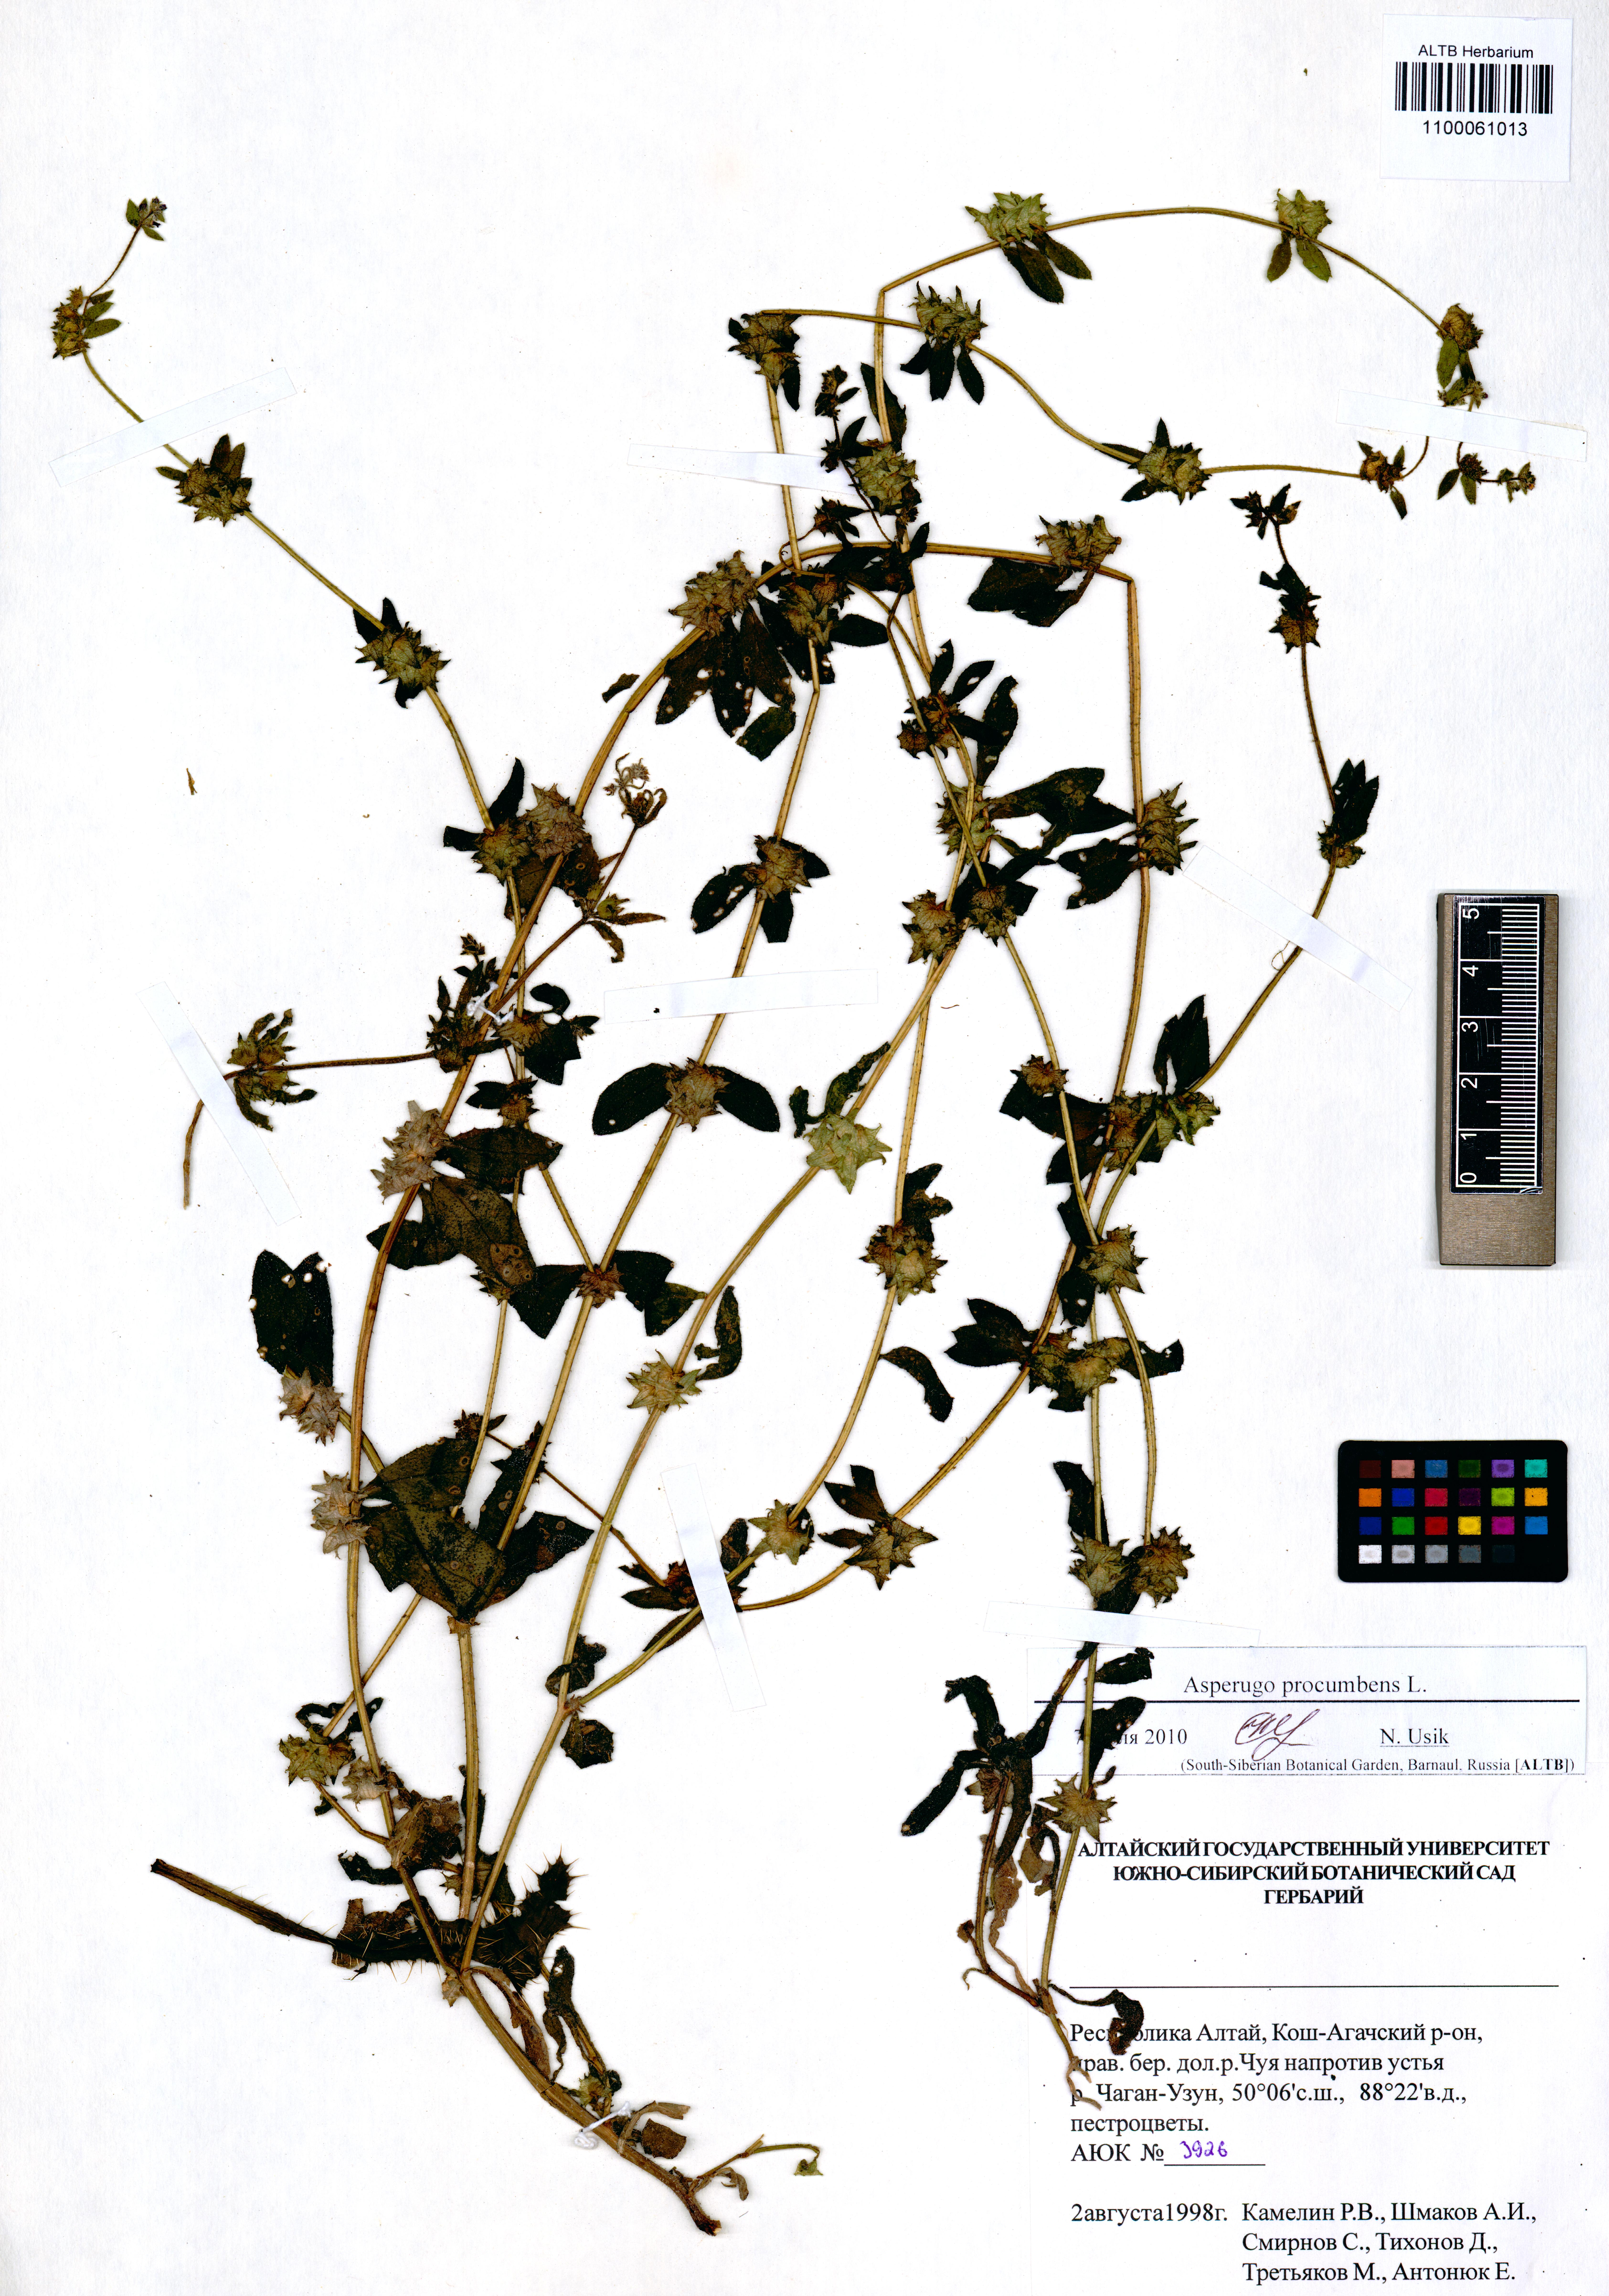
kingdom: Plantae
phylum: Tracheophyta
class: Magnoliopsida
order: Boraginales
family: Boraginaceae
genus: Asperugo
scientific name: Asperugo procumbens
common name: Madwort
